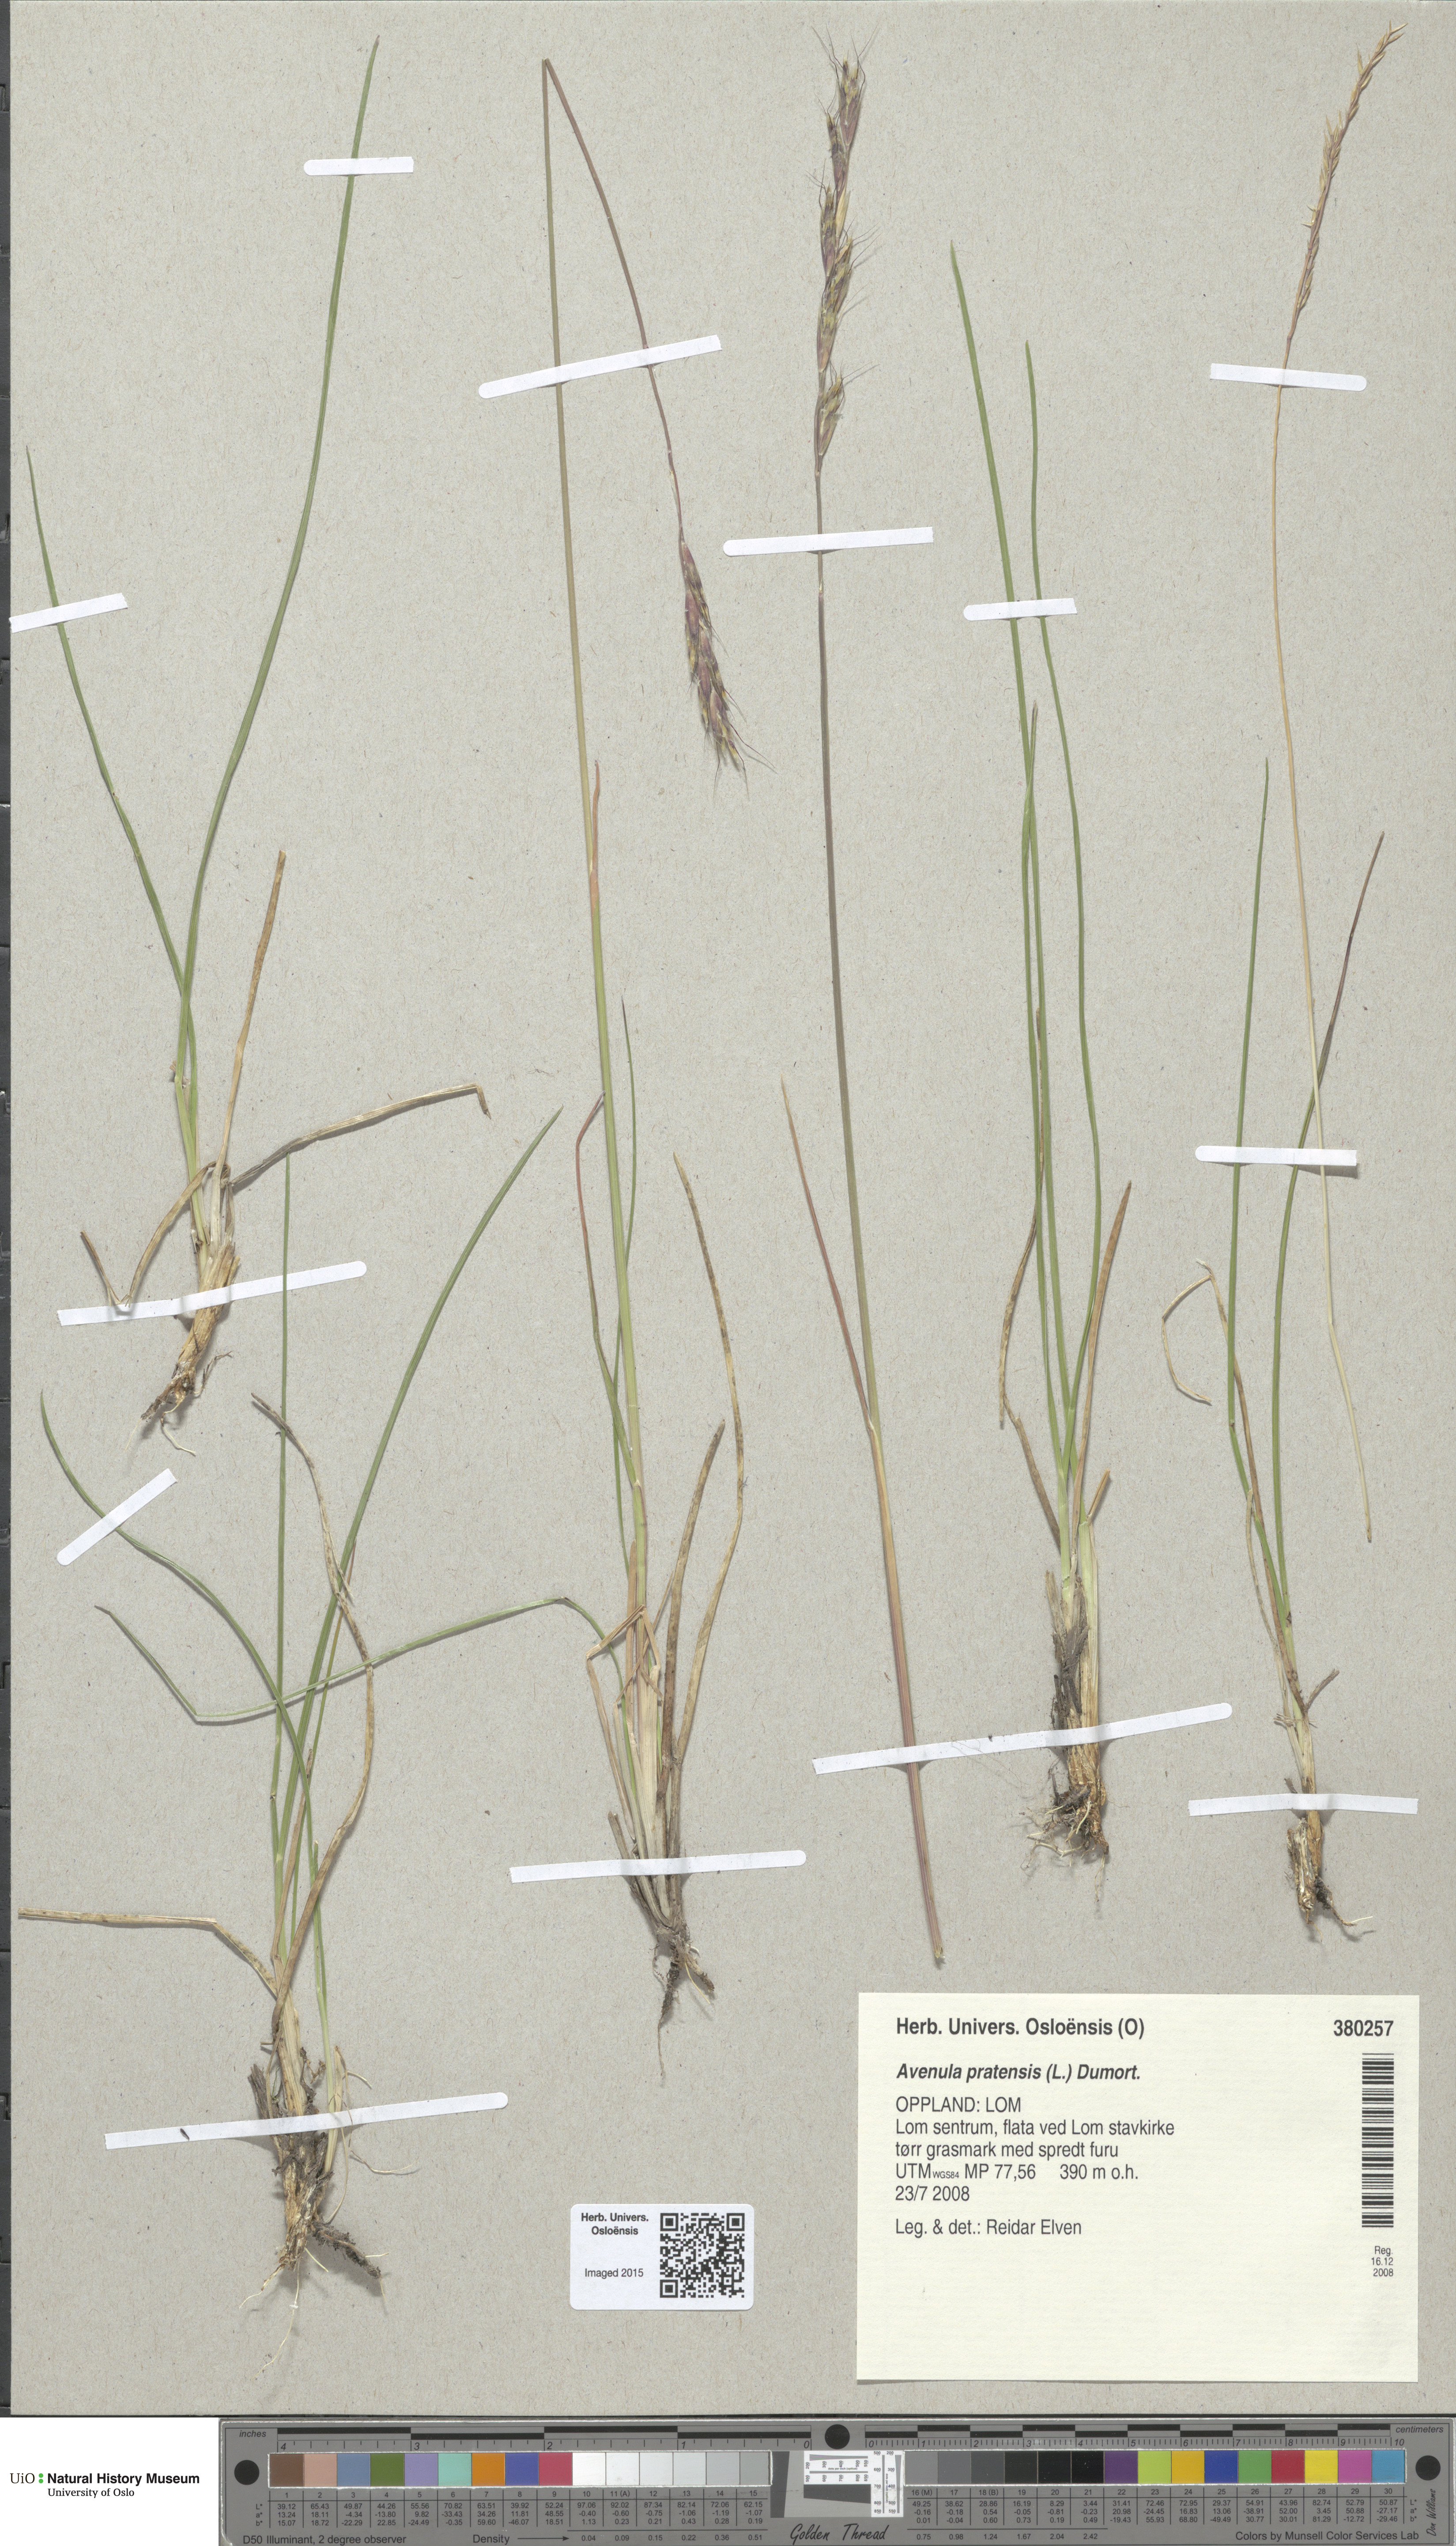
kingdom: Plantae
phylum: Tracheophyta
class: Liliopsida
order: Poales
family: Poaceae
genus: Helictochloa
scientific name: Helictochloa pratensis
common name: Meadow oat grass
